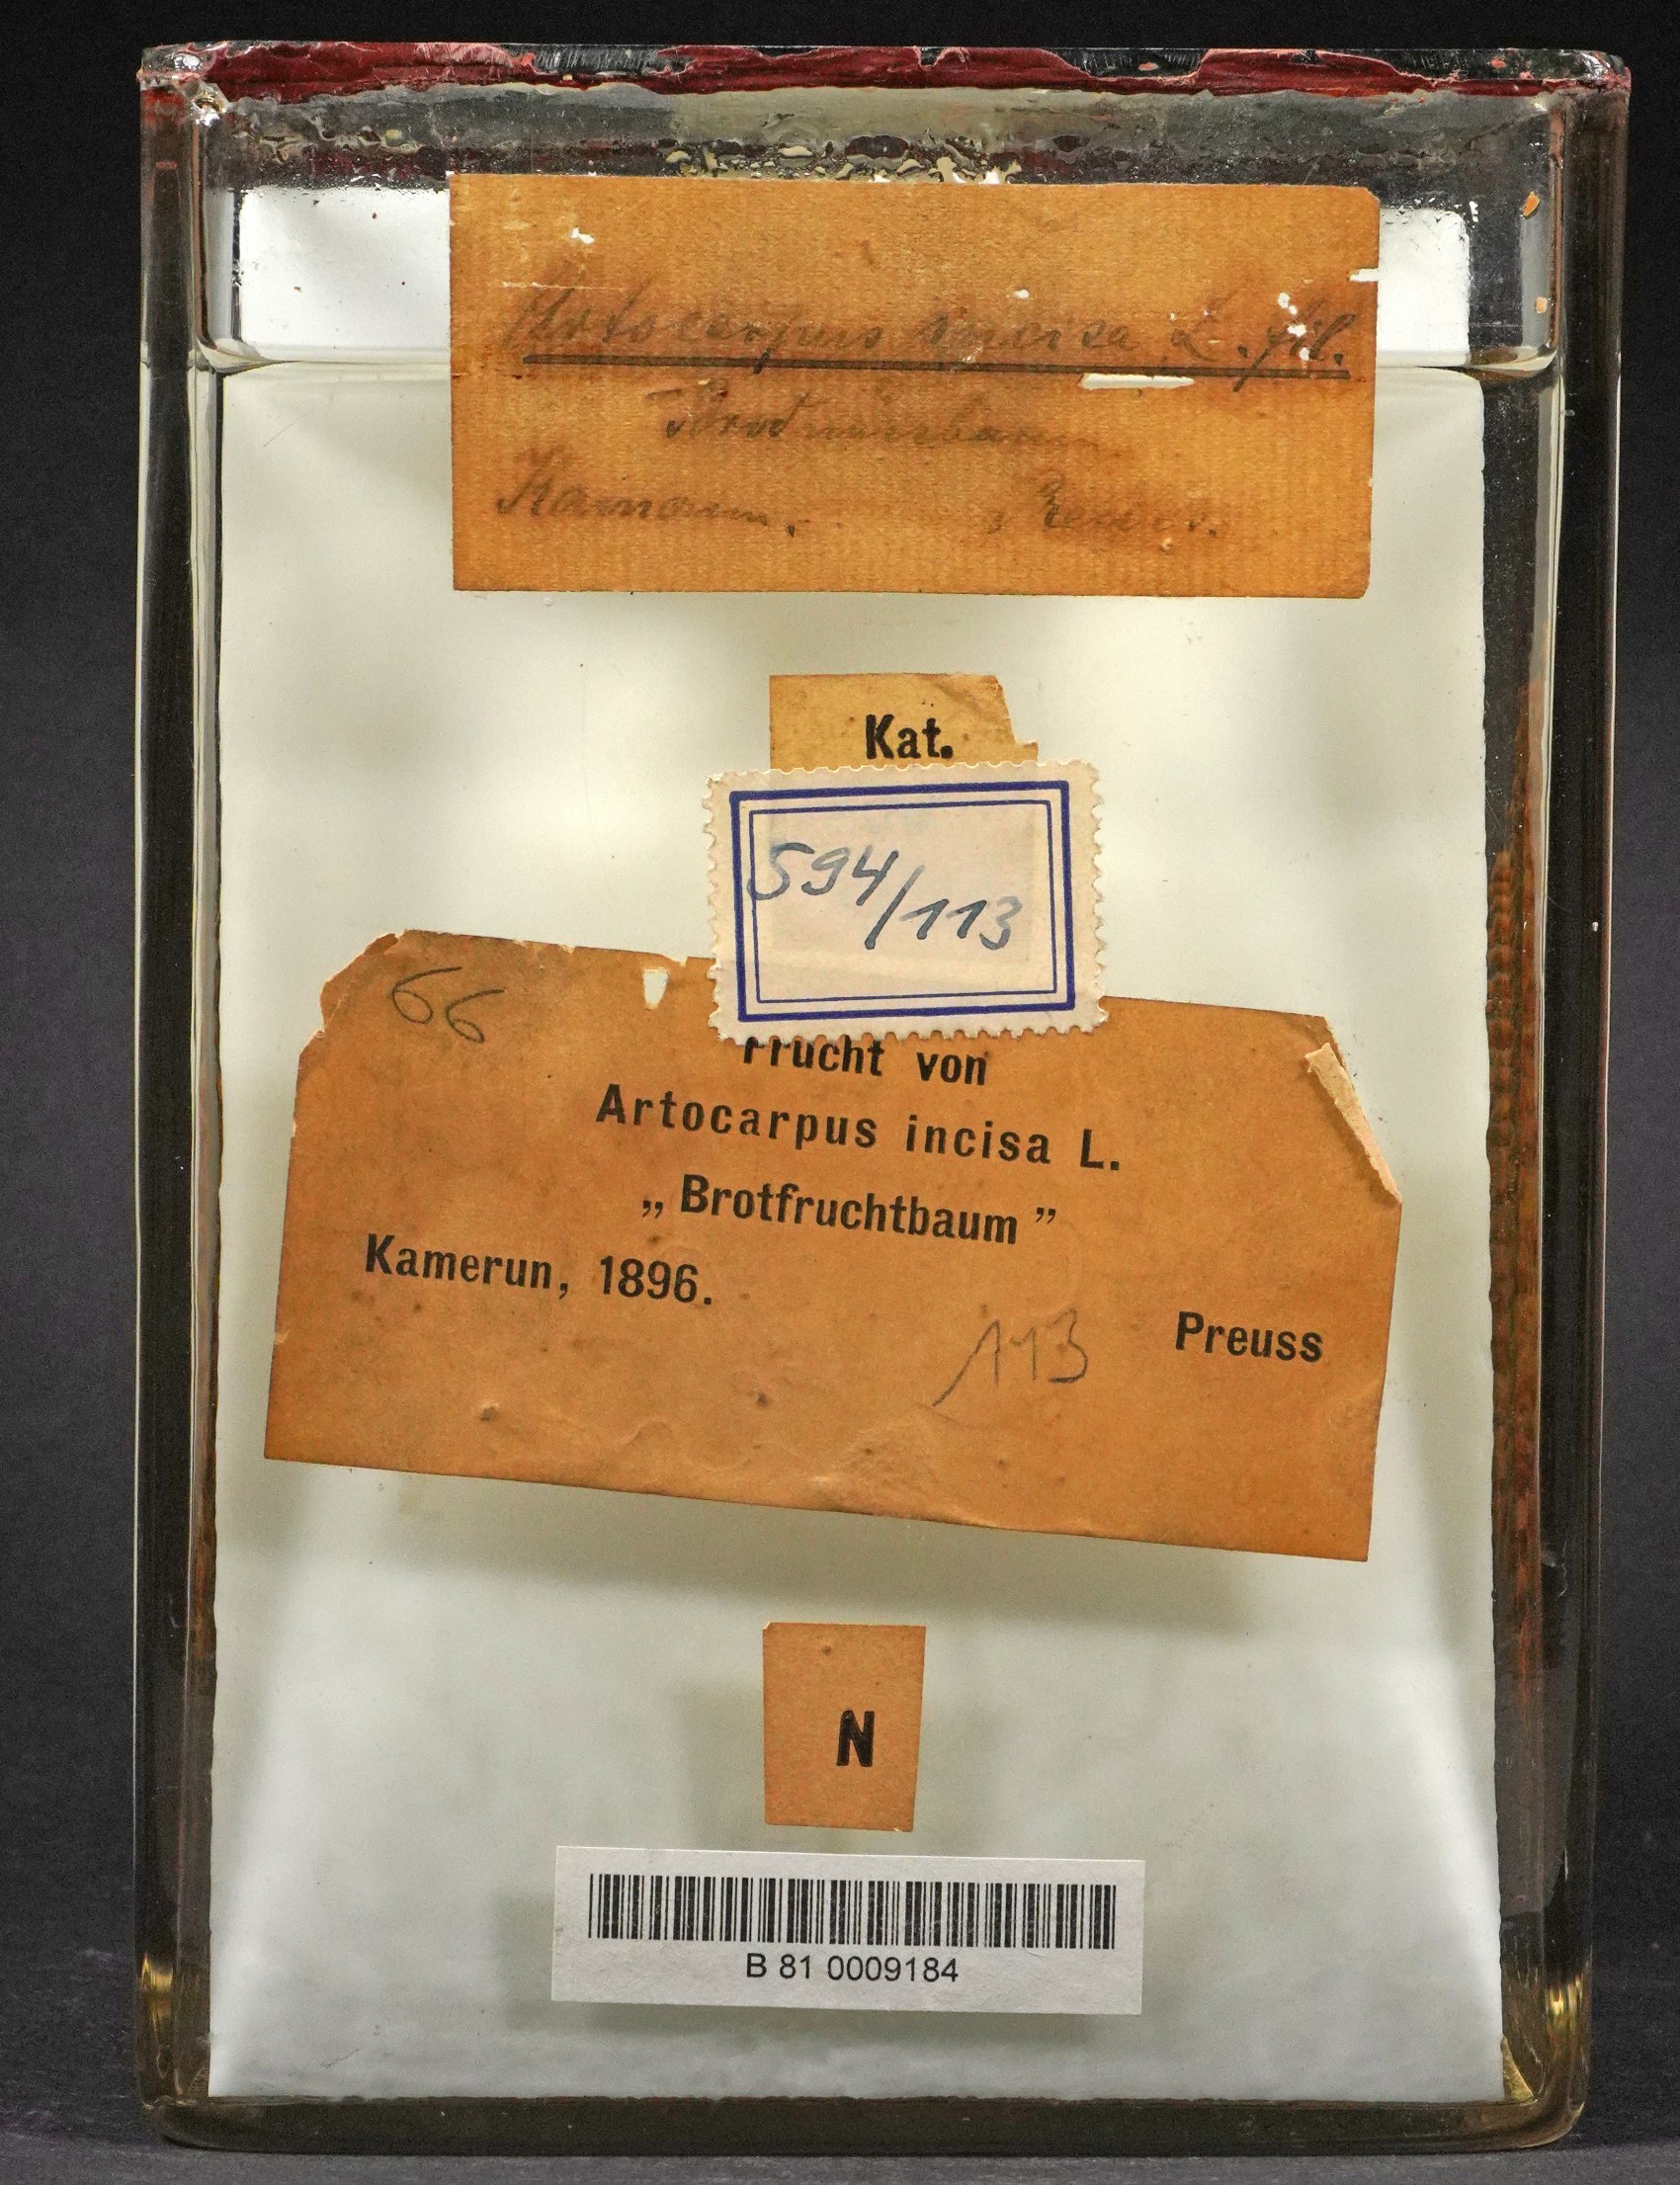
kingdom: Plantae
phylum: Tracheophyta
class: Magnoliopsida
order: Rosales
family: Moraceae
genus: Artocarpus
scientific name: Artocarpus altilis
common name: Breadfruit
